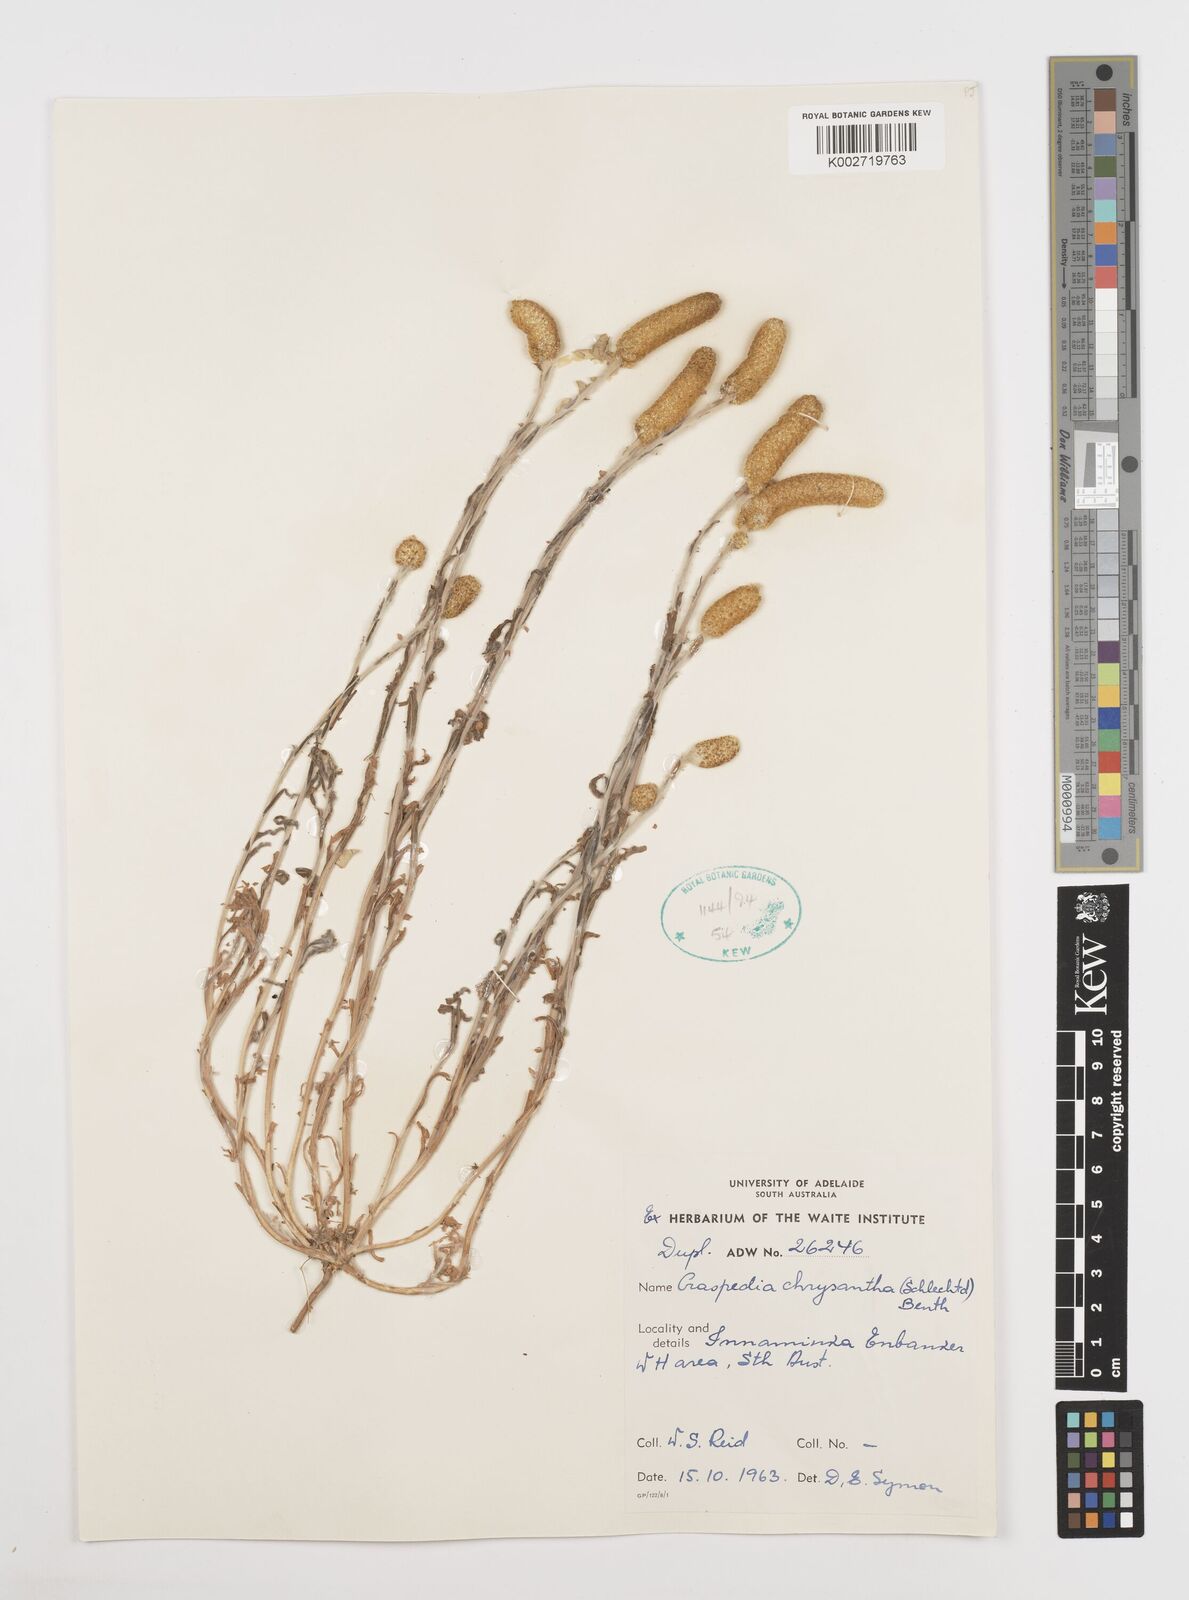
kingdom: Plantae
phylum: Tracheophyta
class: Magnoliopsida
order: Asterales
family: Asteraceae
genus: Pycnosorus
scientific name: Pycnosorus chrysanthus
